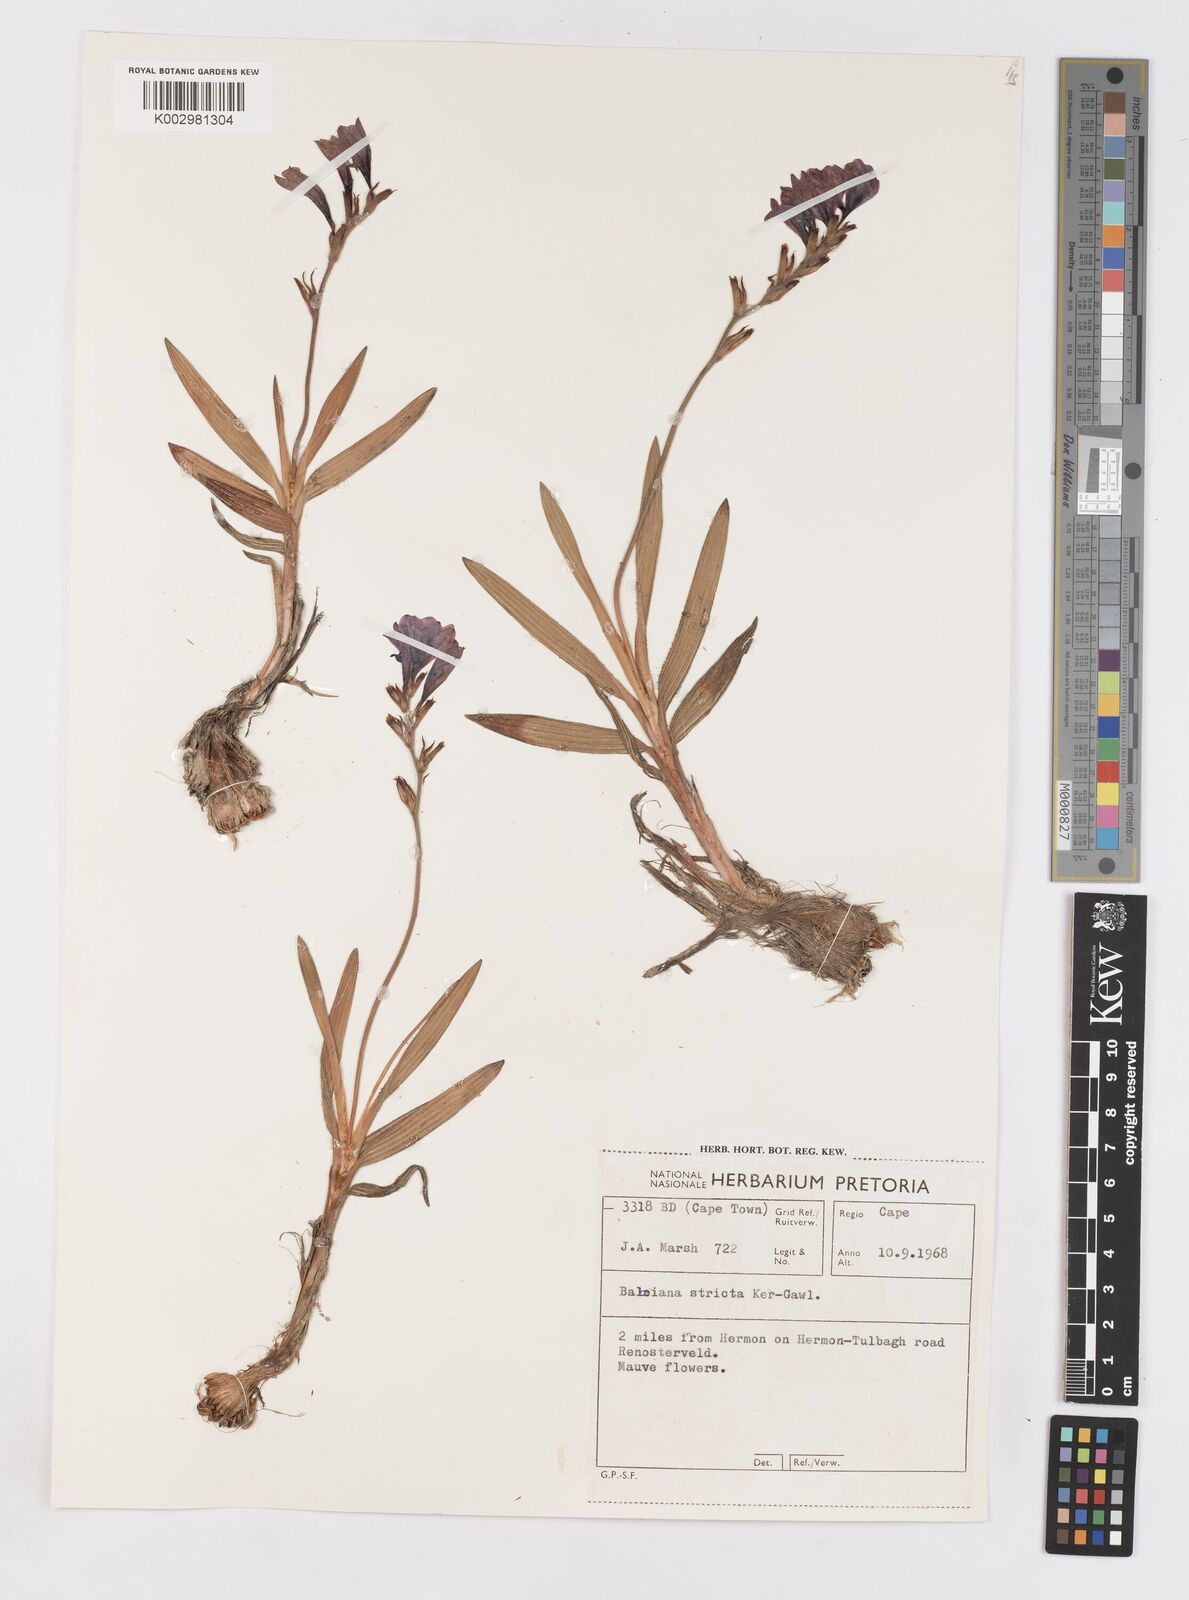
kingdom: Plantae
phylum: Tracheophyta
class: Liliopsida
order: Asparagales
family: Iridaceae
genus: Babiana
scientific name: Babiana nervosa
